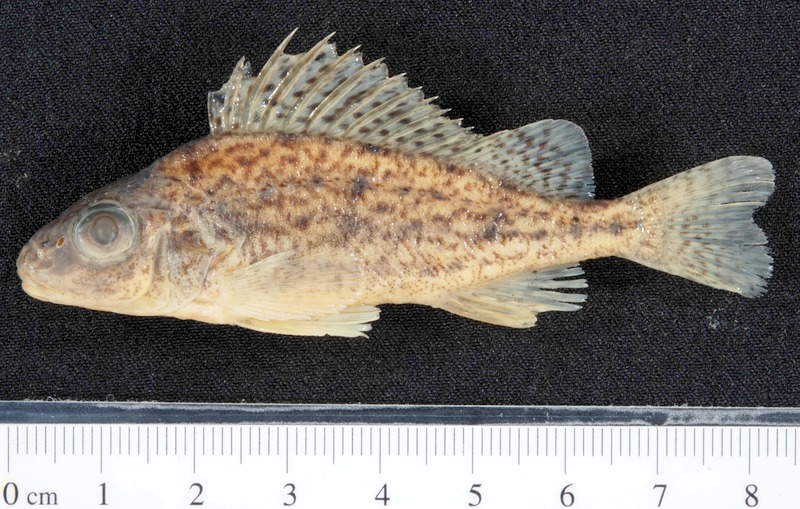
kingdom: Animalia
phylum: Chordata
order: Perciformes
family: Percidae
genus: Gymnocephalus
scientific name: Gymnocephalus baloni
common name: Balon's ruffe
